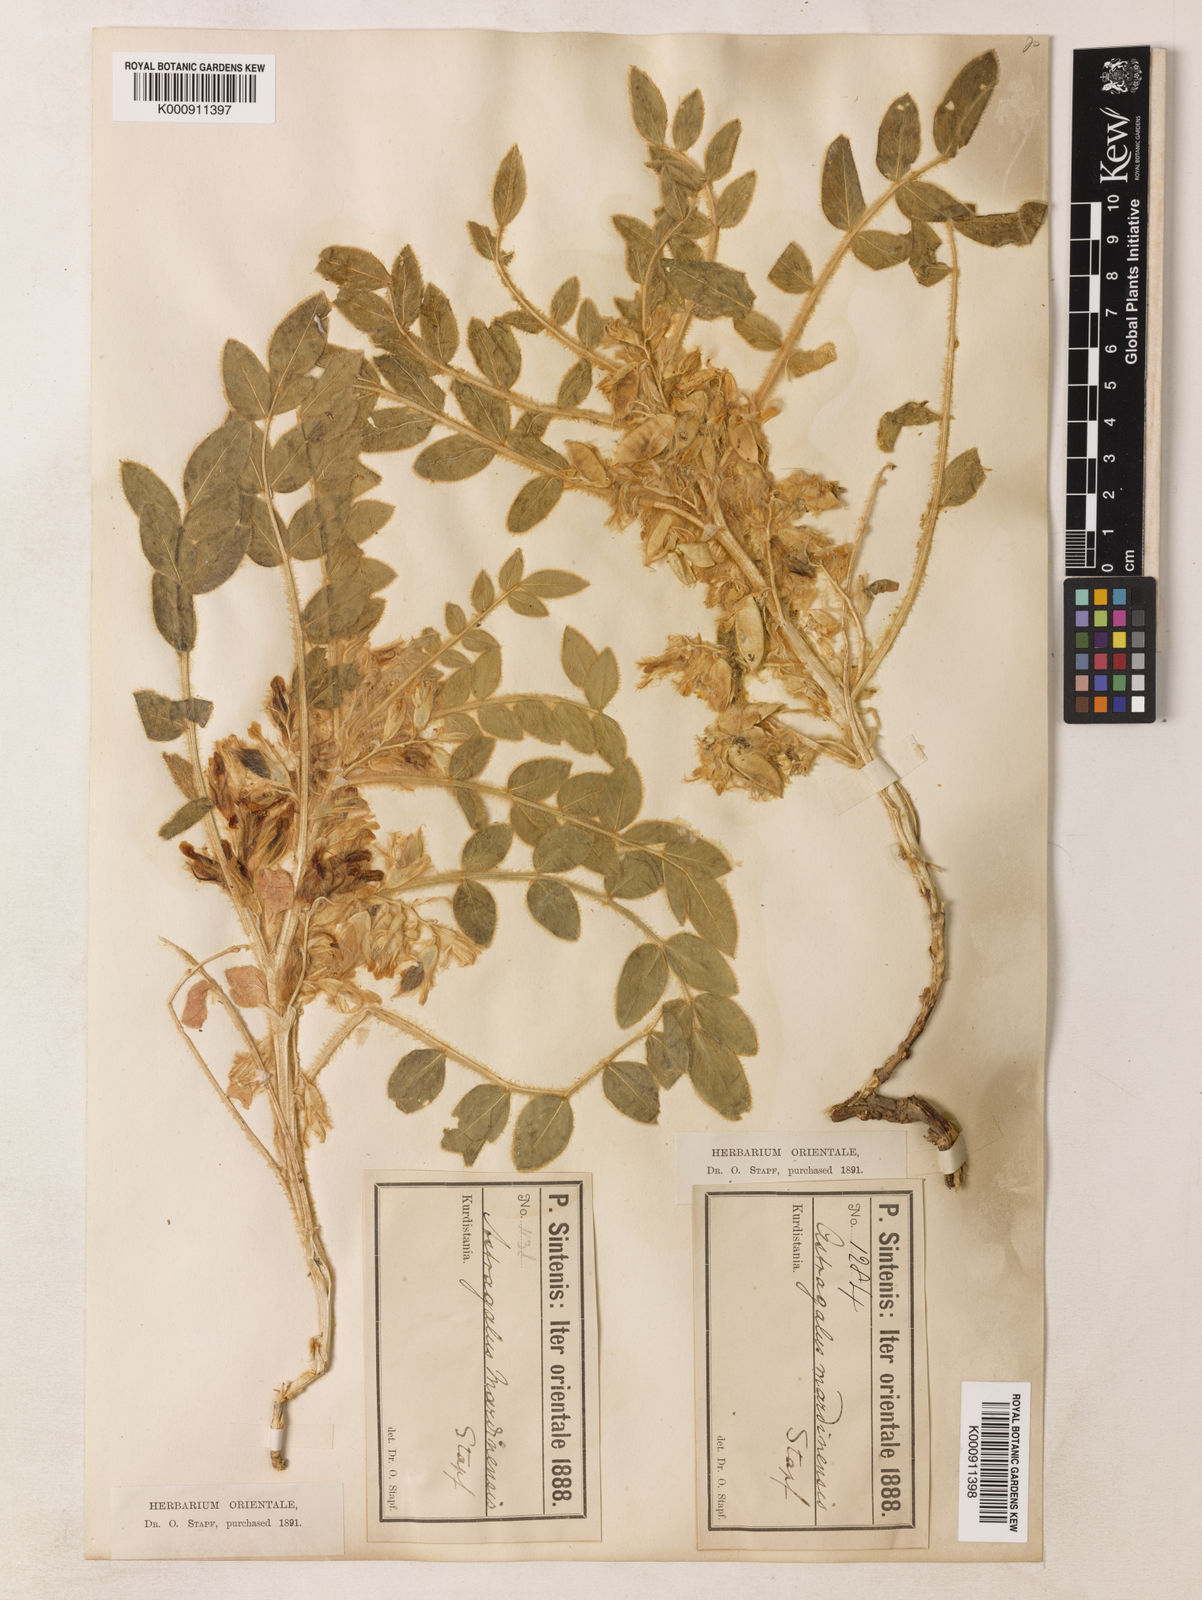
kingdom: Plantae
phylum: Tracheophyta
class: Magnoliopsida
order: Fabales
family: Fabaceae
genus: Astragalus
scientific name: Astragalus
